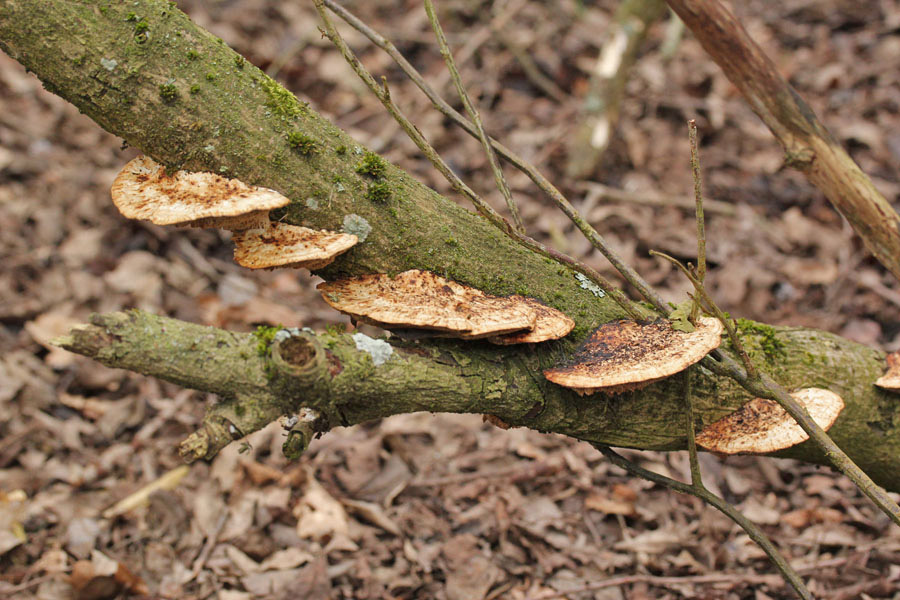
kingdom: Fungi
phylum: Basidiomycota
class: Agaricomycetes
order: Polyporales
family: Polyporaceae
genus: Daedaleopsis
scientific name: Daedaleopsis confragosa
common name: rødmende læderporesvamp
